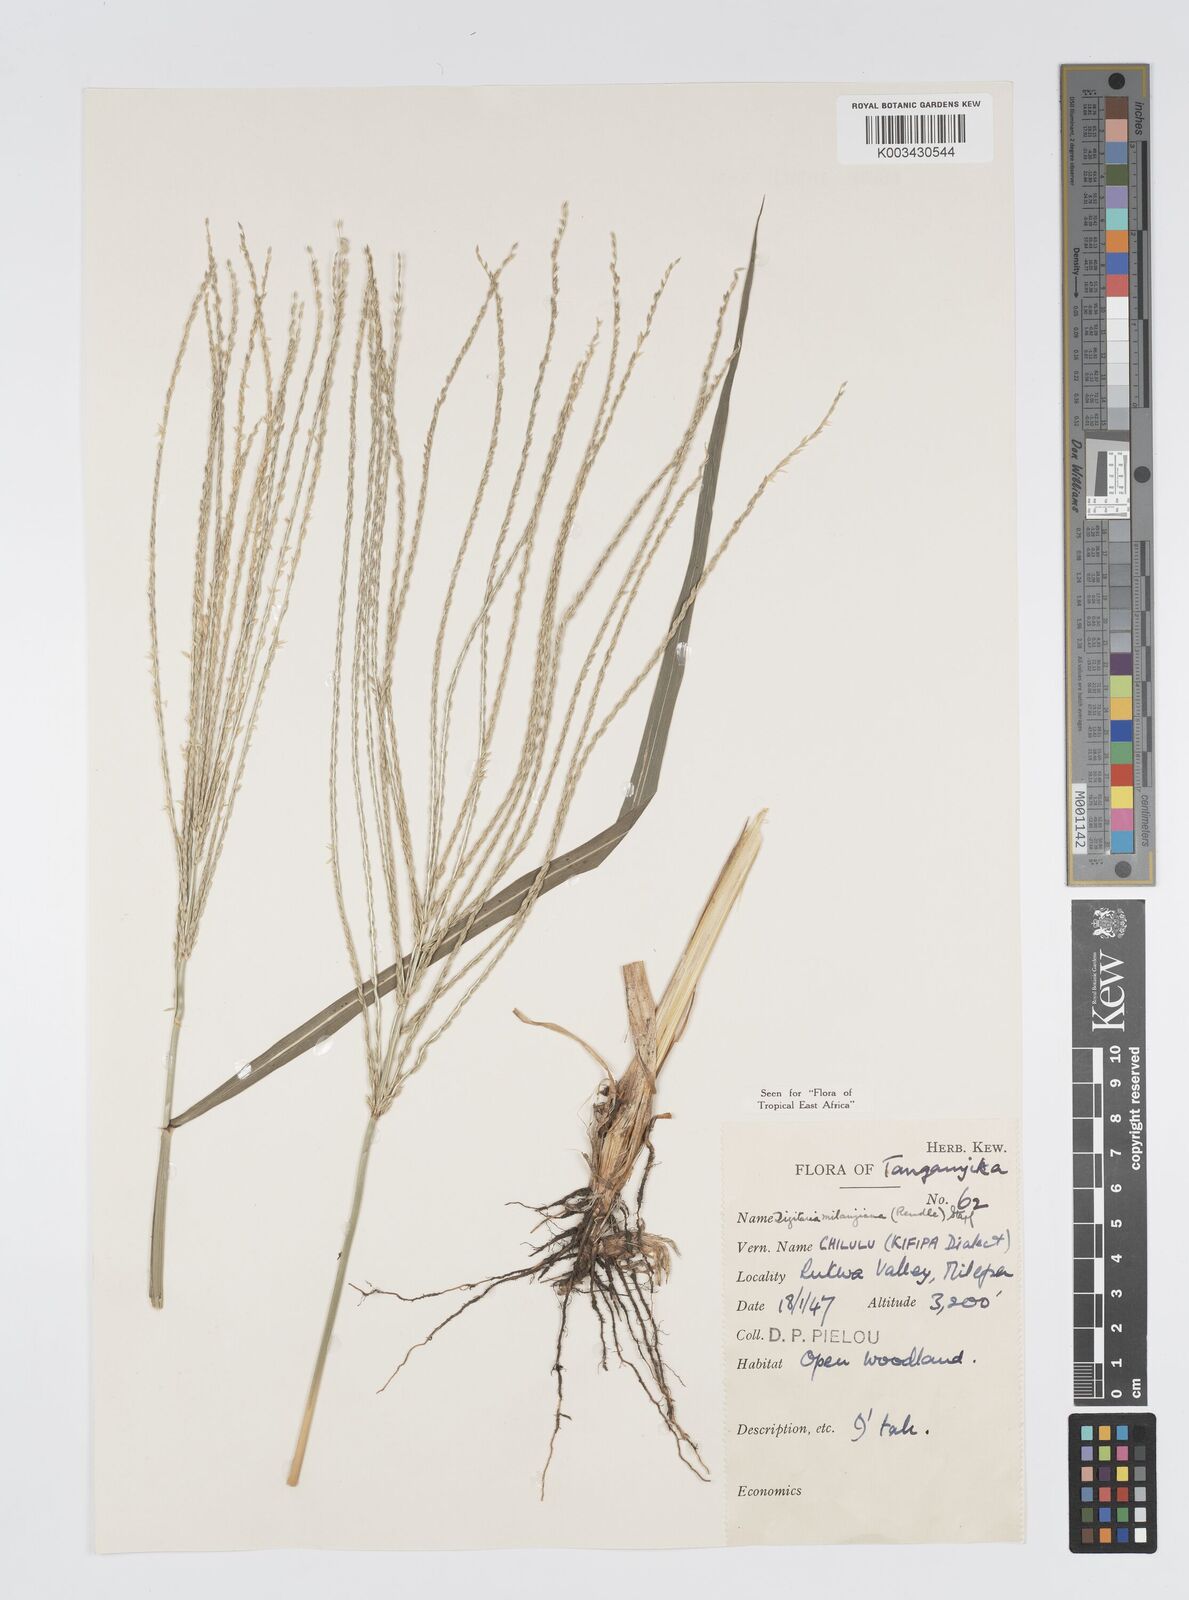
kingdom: Plantae
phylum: Tracheophyta
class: Liliopsida
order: Poales
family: Poaceae
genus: Digitaria
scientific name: Digitaria milanjiana
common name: Madagascar crabgrass
